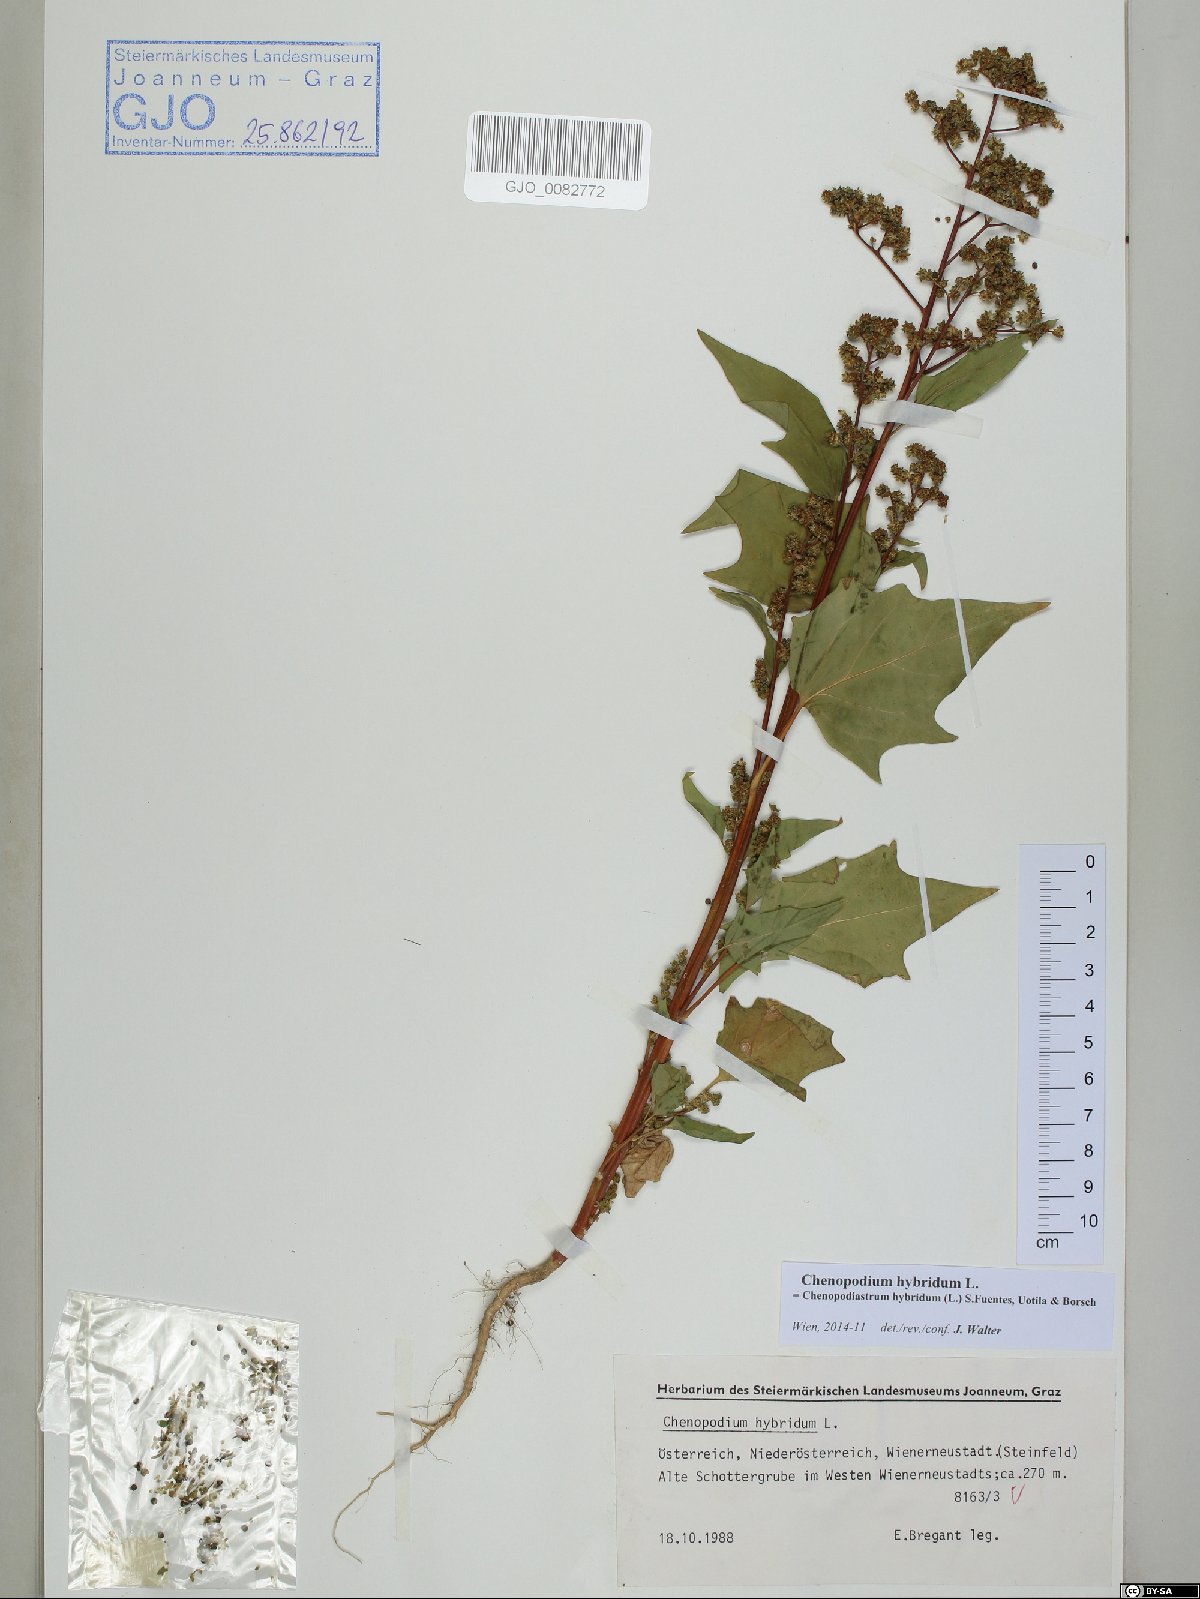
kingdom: Plantae
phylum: Tracheophyta
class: Magnoliopsida
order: Caryophyllales
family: Amaranthaceae
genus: Chenopodiastrum
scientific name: Chenopodiastrum hybridum
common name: Mapleleaf goosefoot
